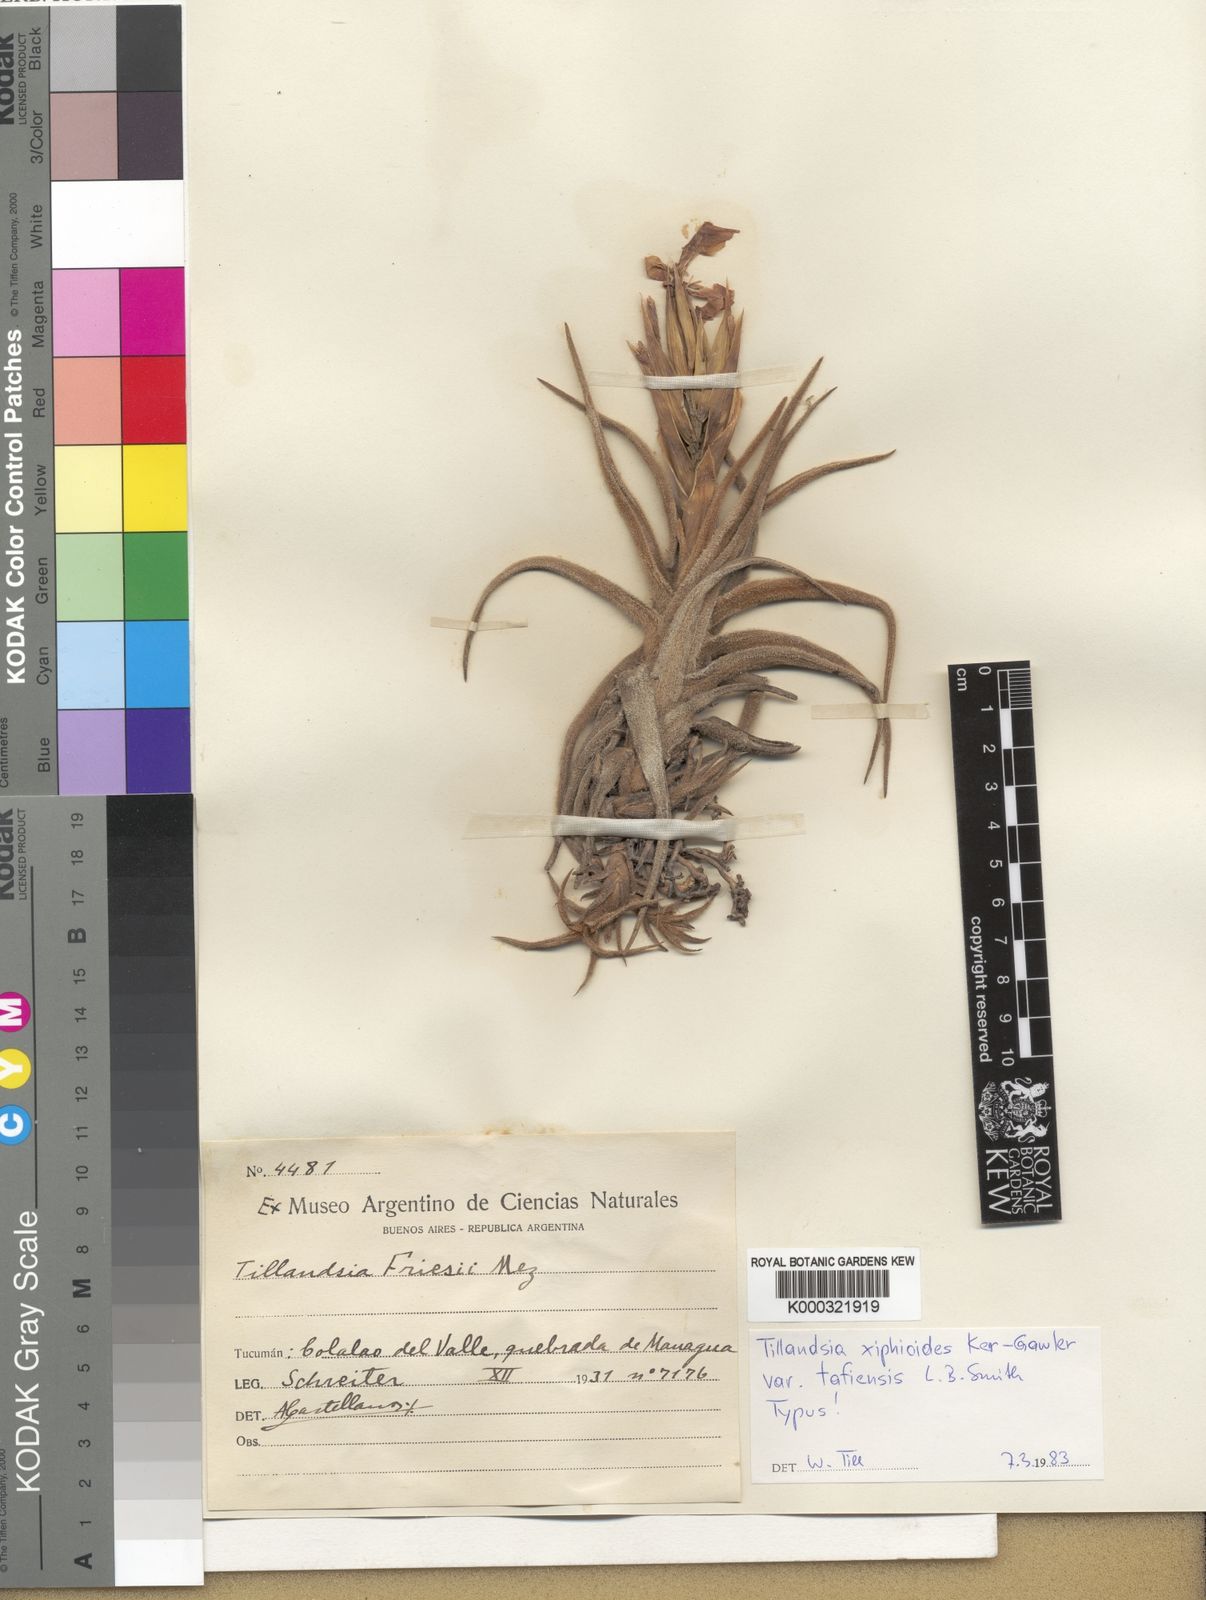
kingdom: Plantae
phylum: Tracheophyta
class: Liliopsida
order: Poales
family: Bromeliaceae
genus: Tillandsia
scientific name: Tillandsia tafiensis
